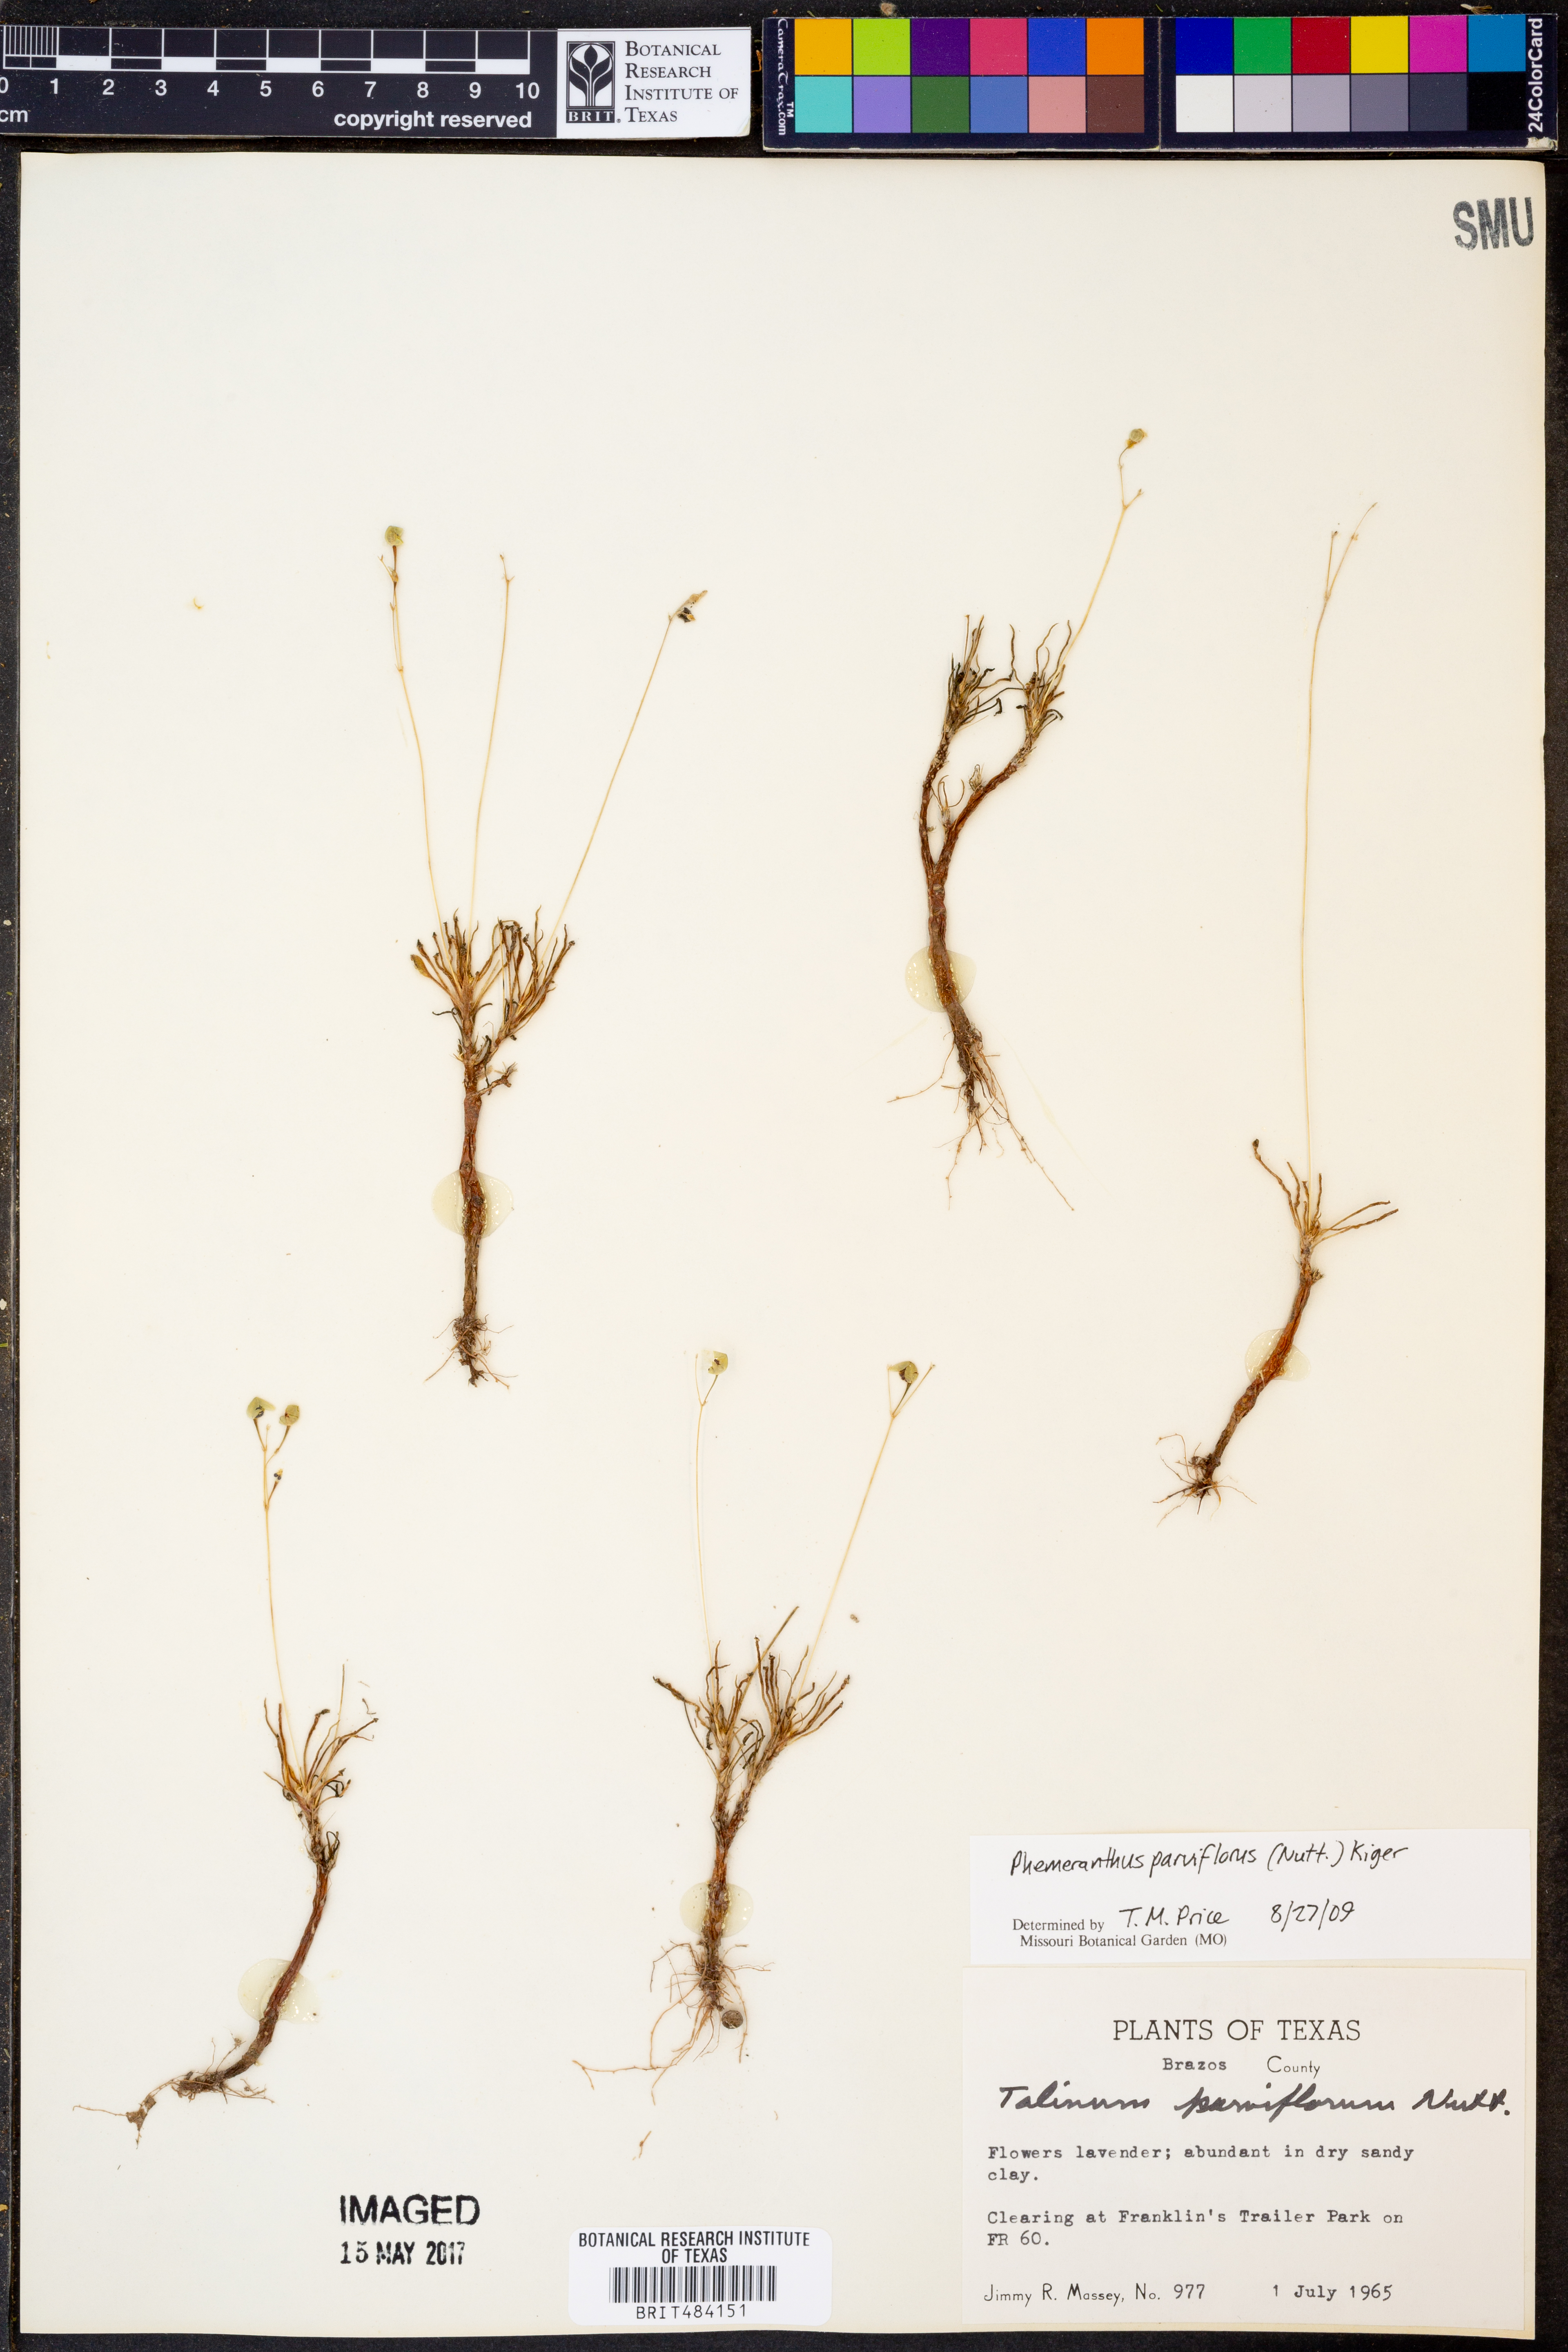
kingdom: Plantae
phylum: Tracheophyta
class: Magnoliopsida
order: Caryophyllales
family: Montiaceae
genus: Phemeranthus
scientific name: Phemeranthus parviflorus
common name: Sunbright
